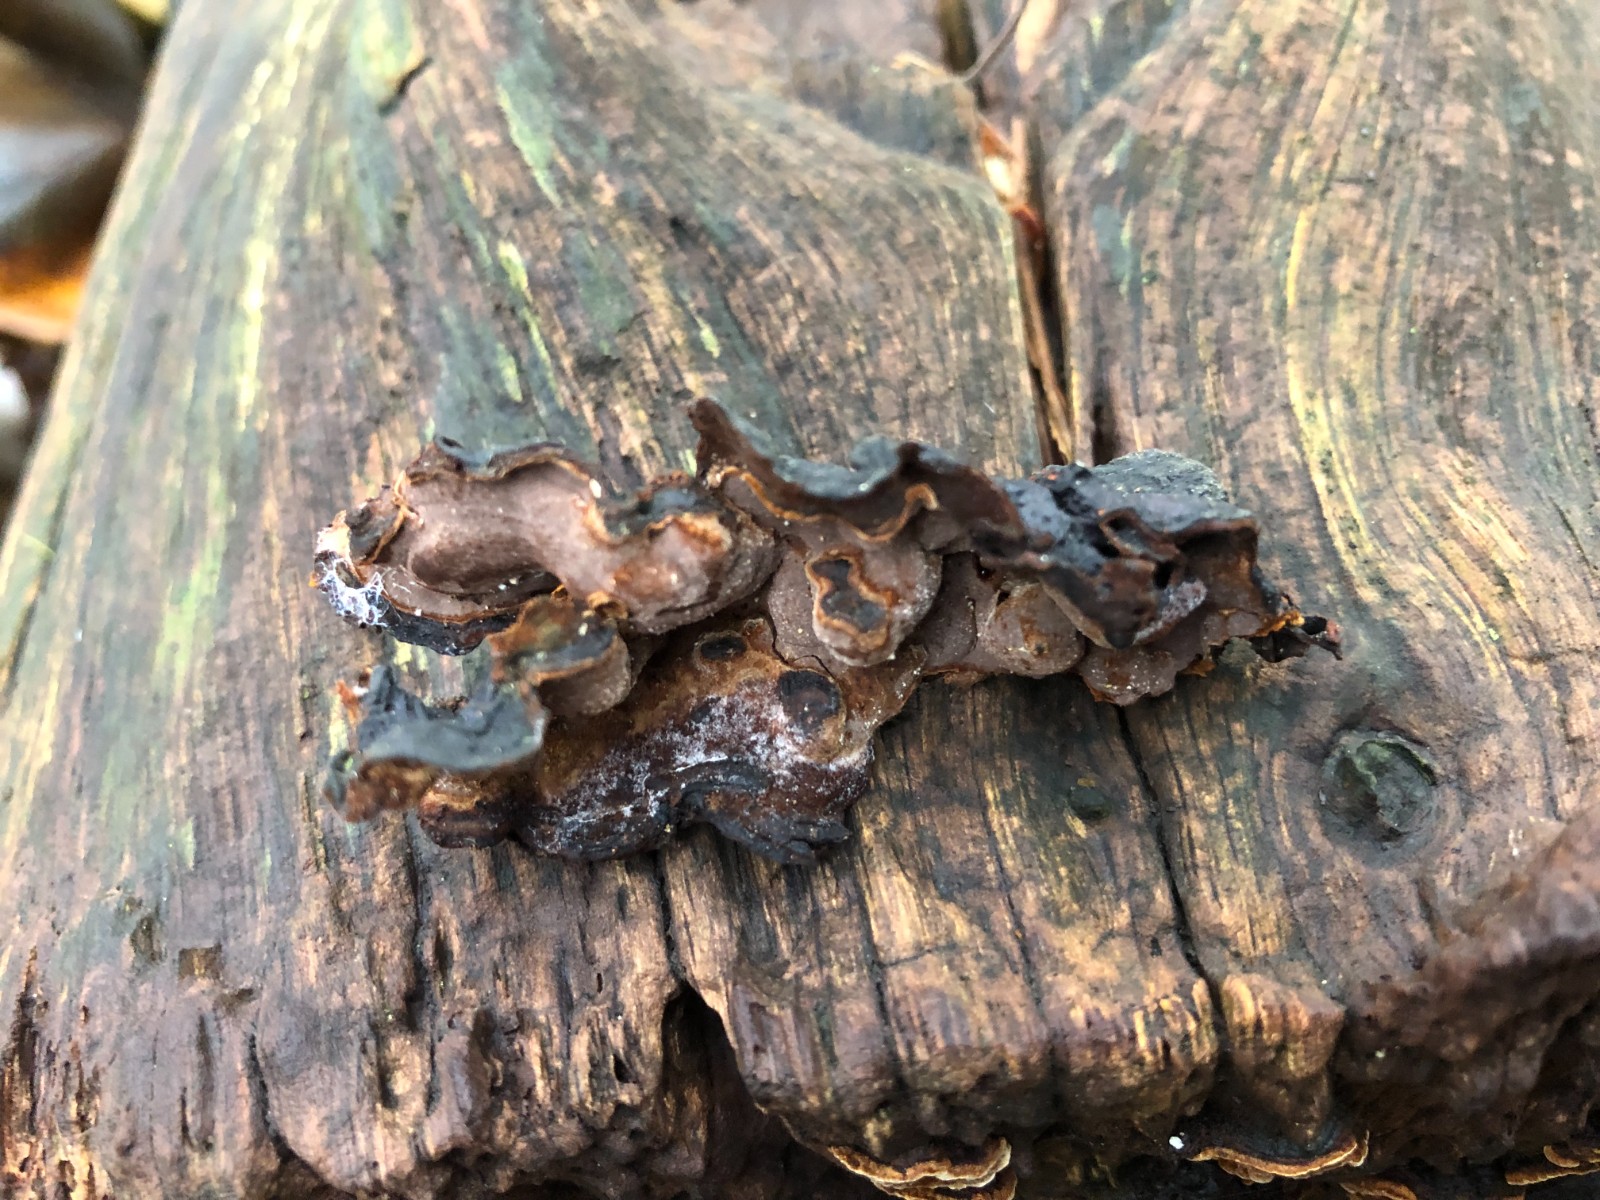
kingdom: Fungi
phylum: Basidiomycota
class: Agaricomycetes
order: Hymenochaetales
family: Hymenochaetaceae
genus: Hymenochaete
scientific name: Hymenochaete rubiginosa
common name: stiv ruslædersvamp
